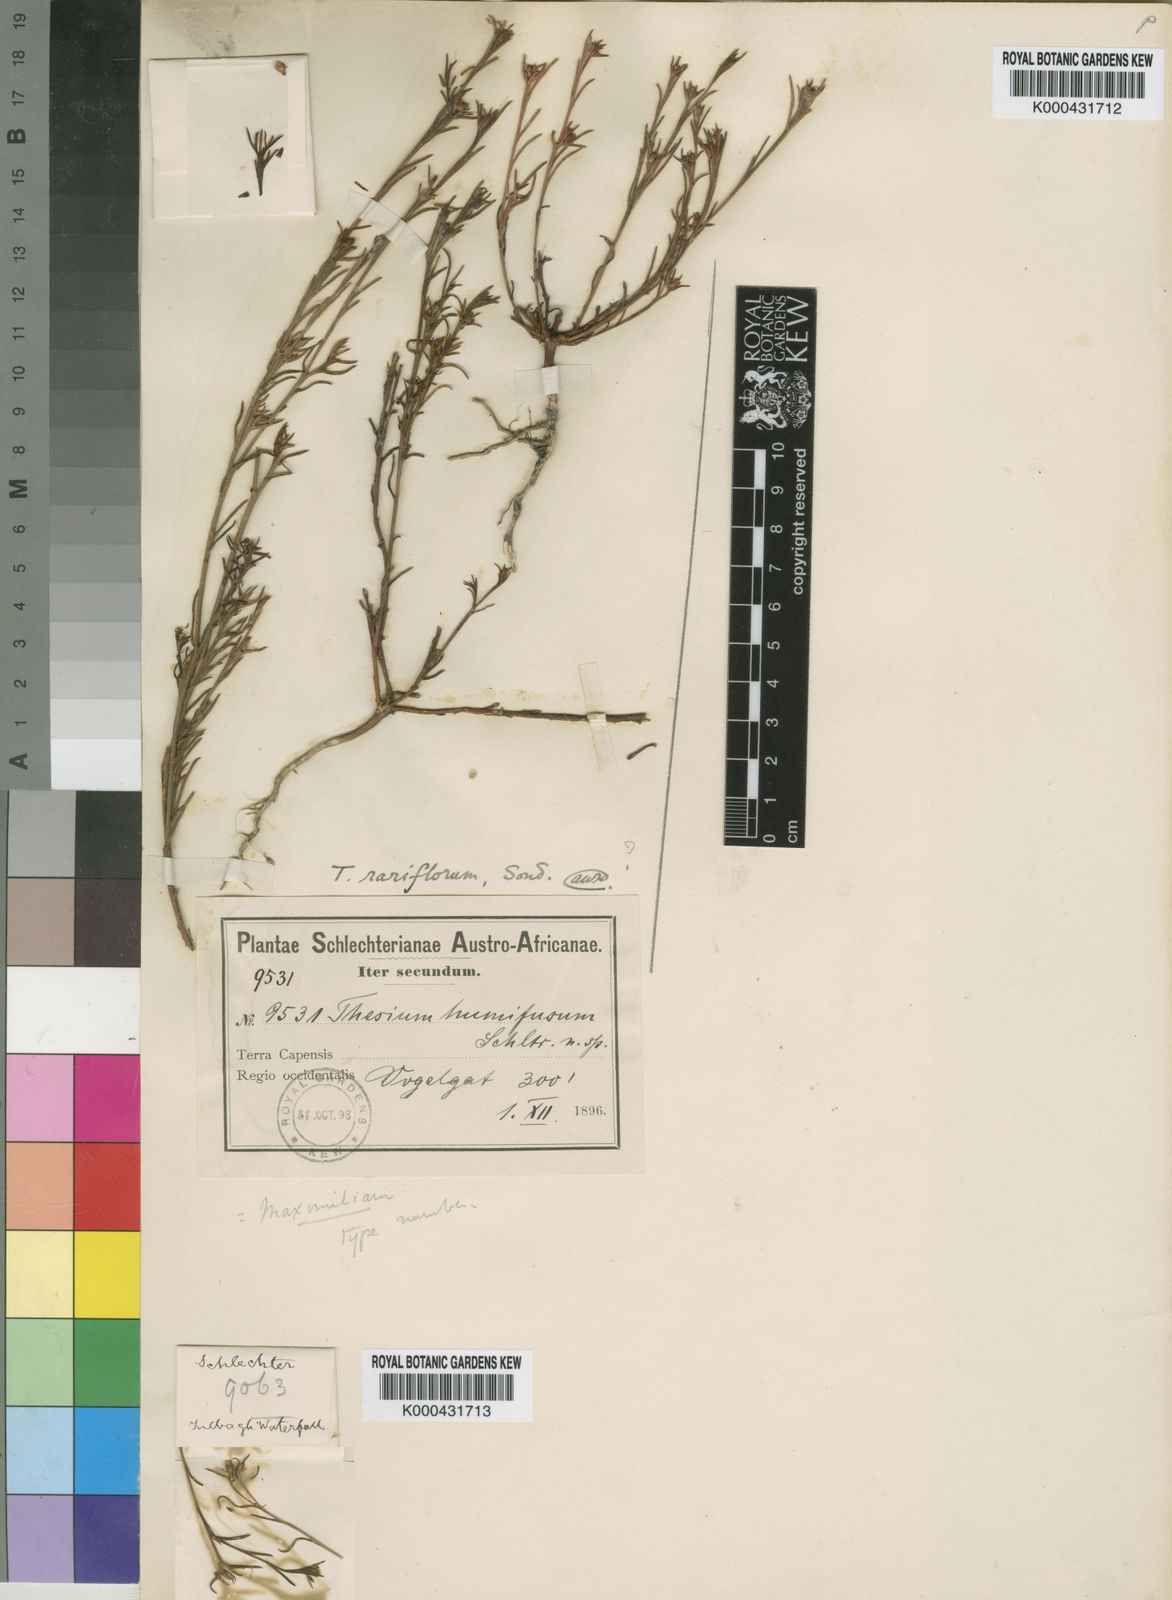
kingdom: Plantae
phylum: Tracheophyta
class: Magnoliopsida
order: Santalales
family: Thesiaceae
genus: Thesium
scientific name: Thesium rariflorum
